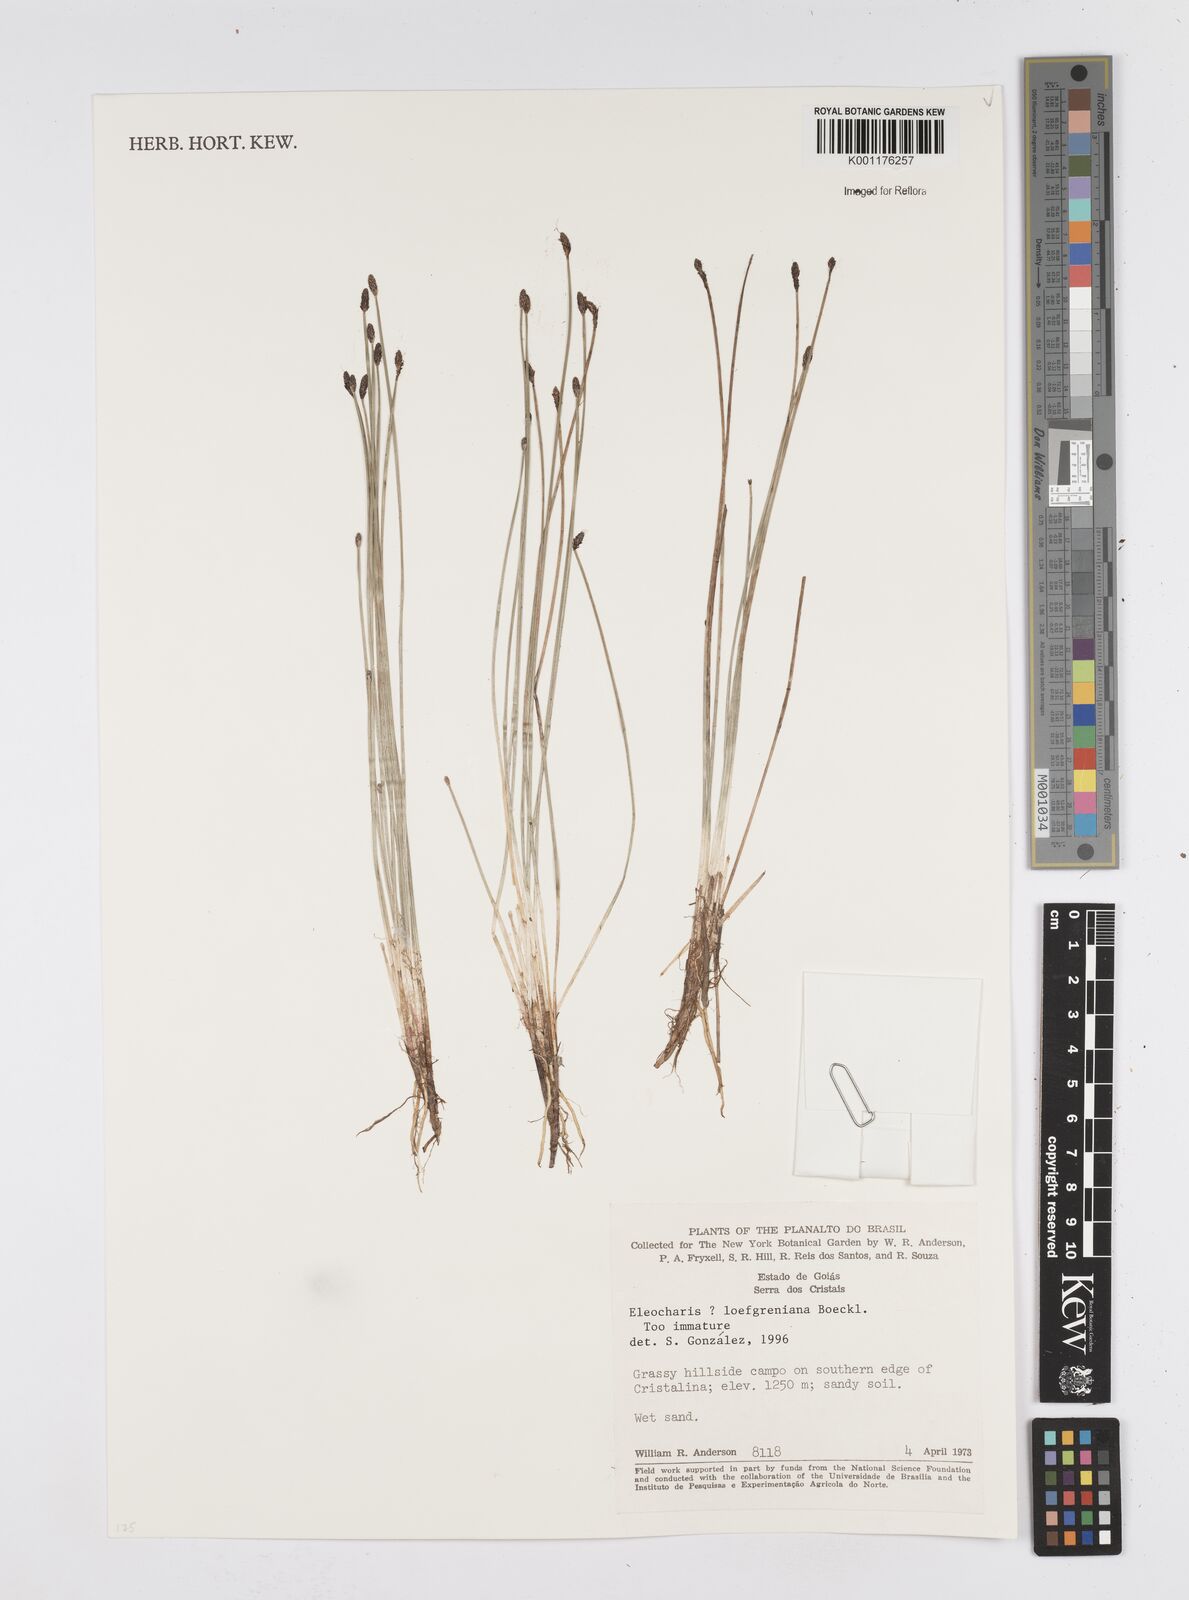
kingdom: Plantae
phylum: Tracheophyta
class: Liliopsida
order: Poales
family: Cyperaceae
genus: Eleocharis
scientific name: Eleocharis loefgreniana
